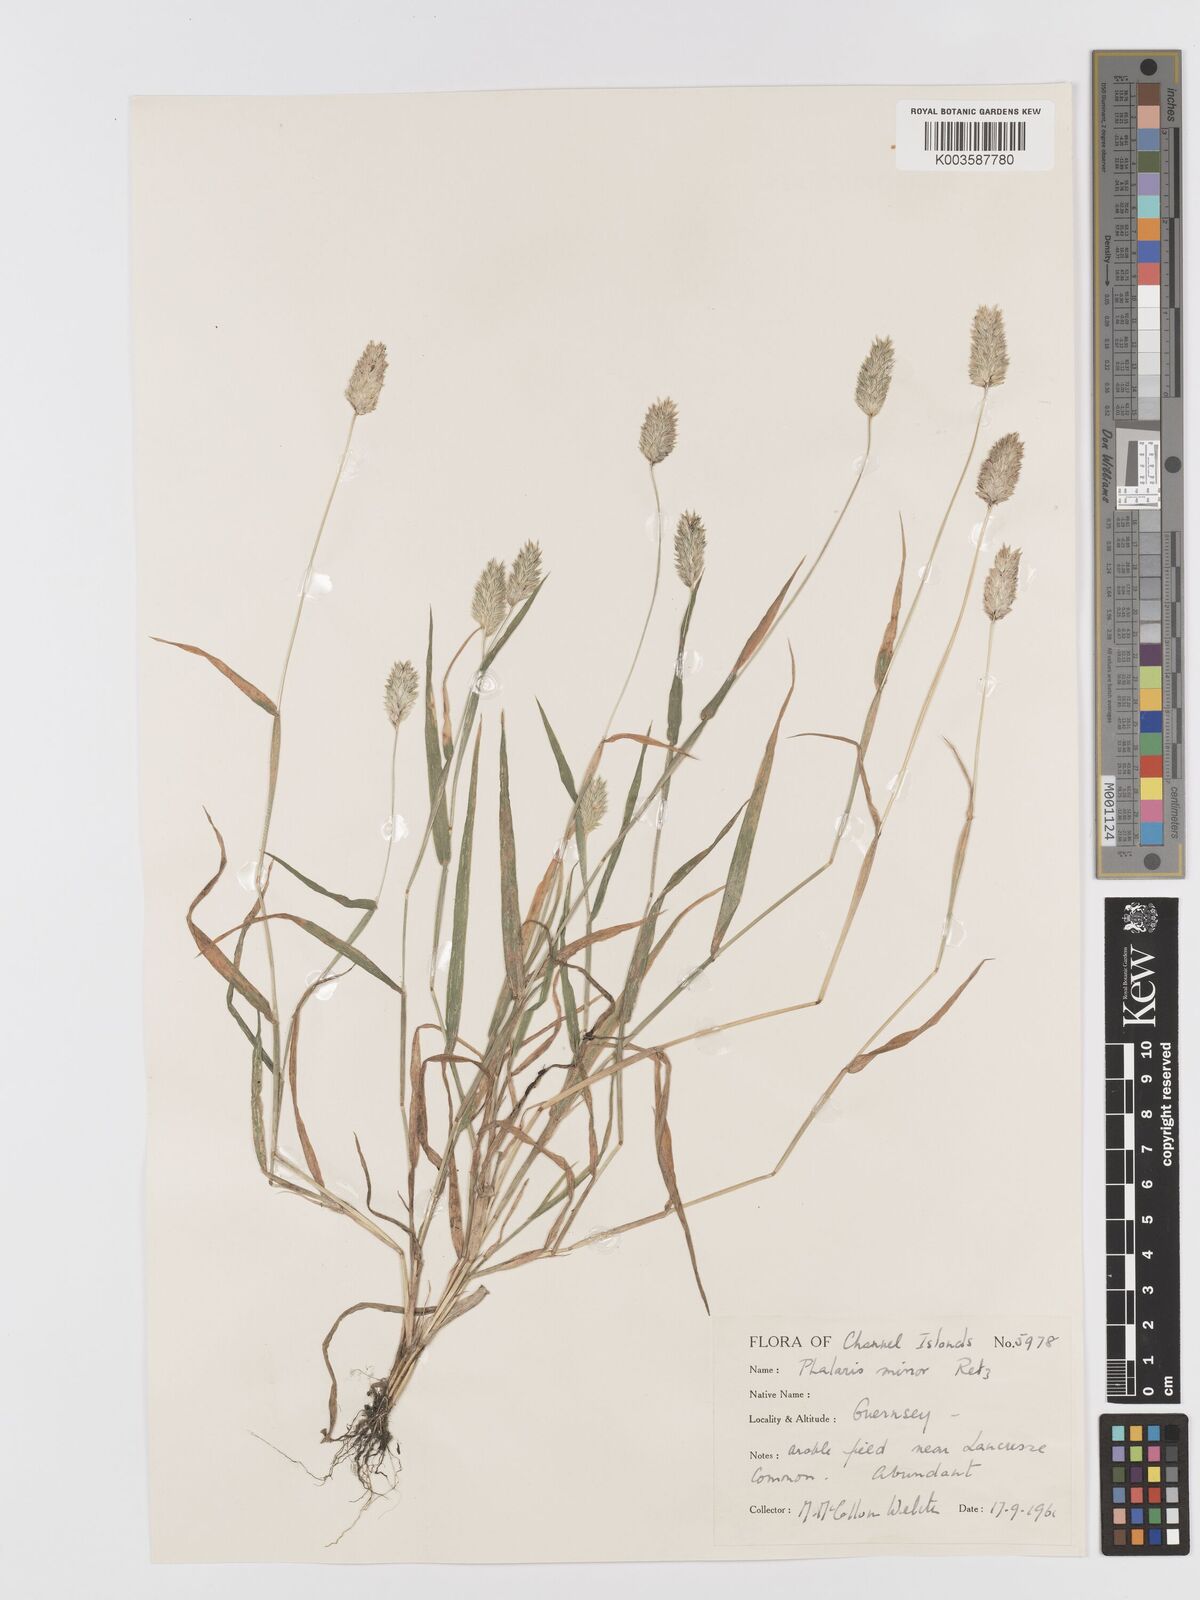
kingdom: Plantae
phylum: Tracheophyta
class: Liliopsida
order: Poales
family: Poaceae
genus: Phalaris
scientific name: Phalaris minor
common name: Littleseed canarygrass
